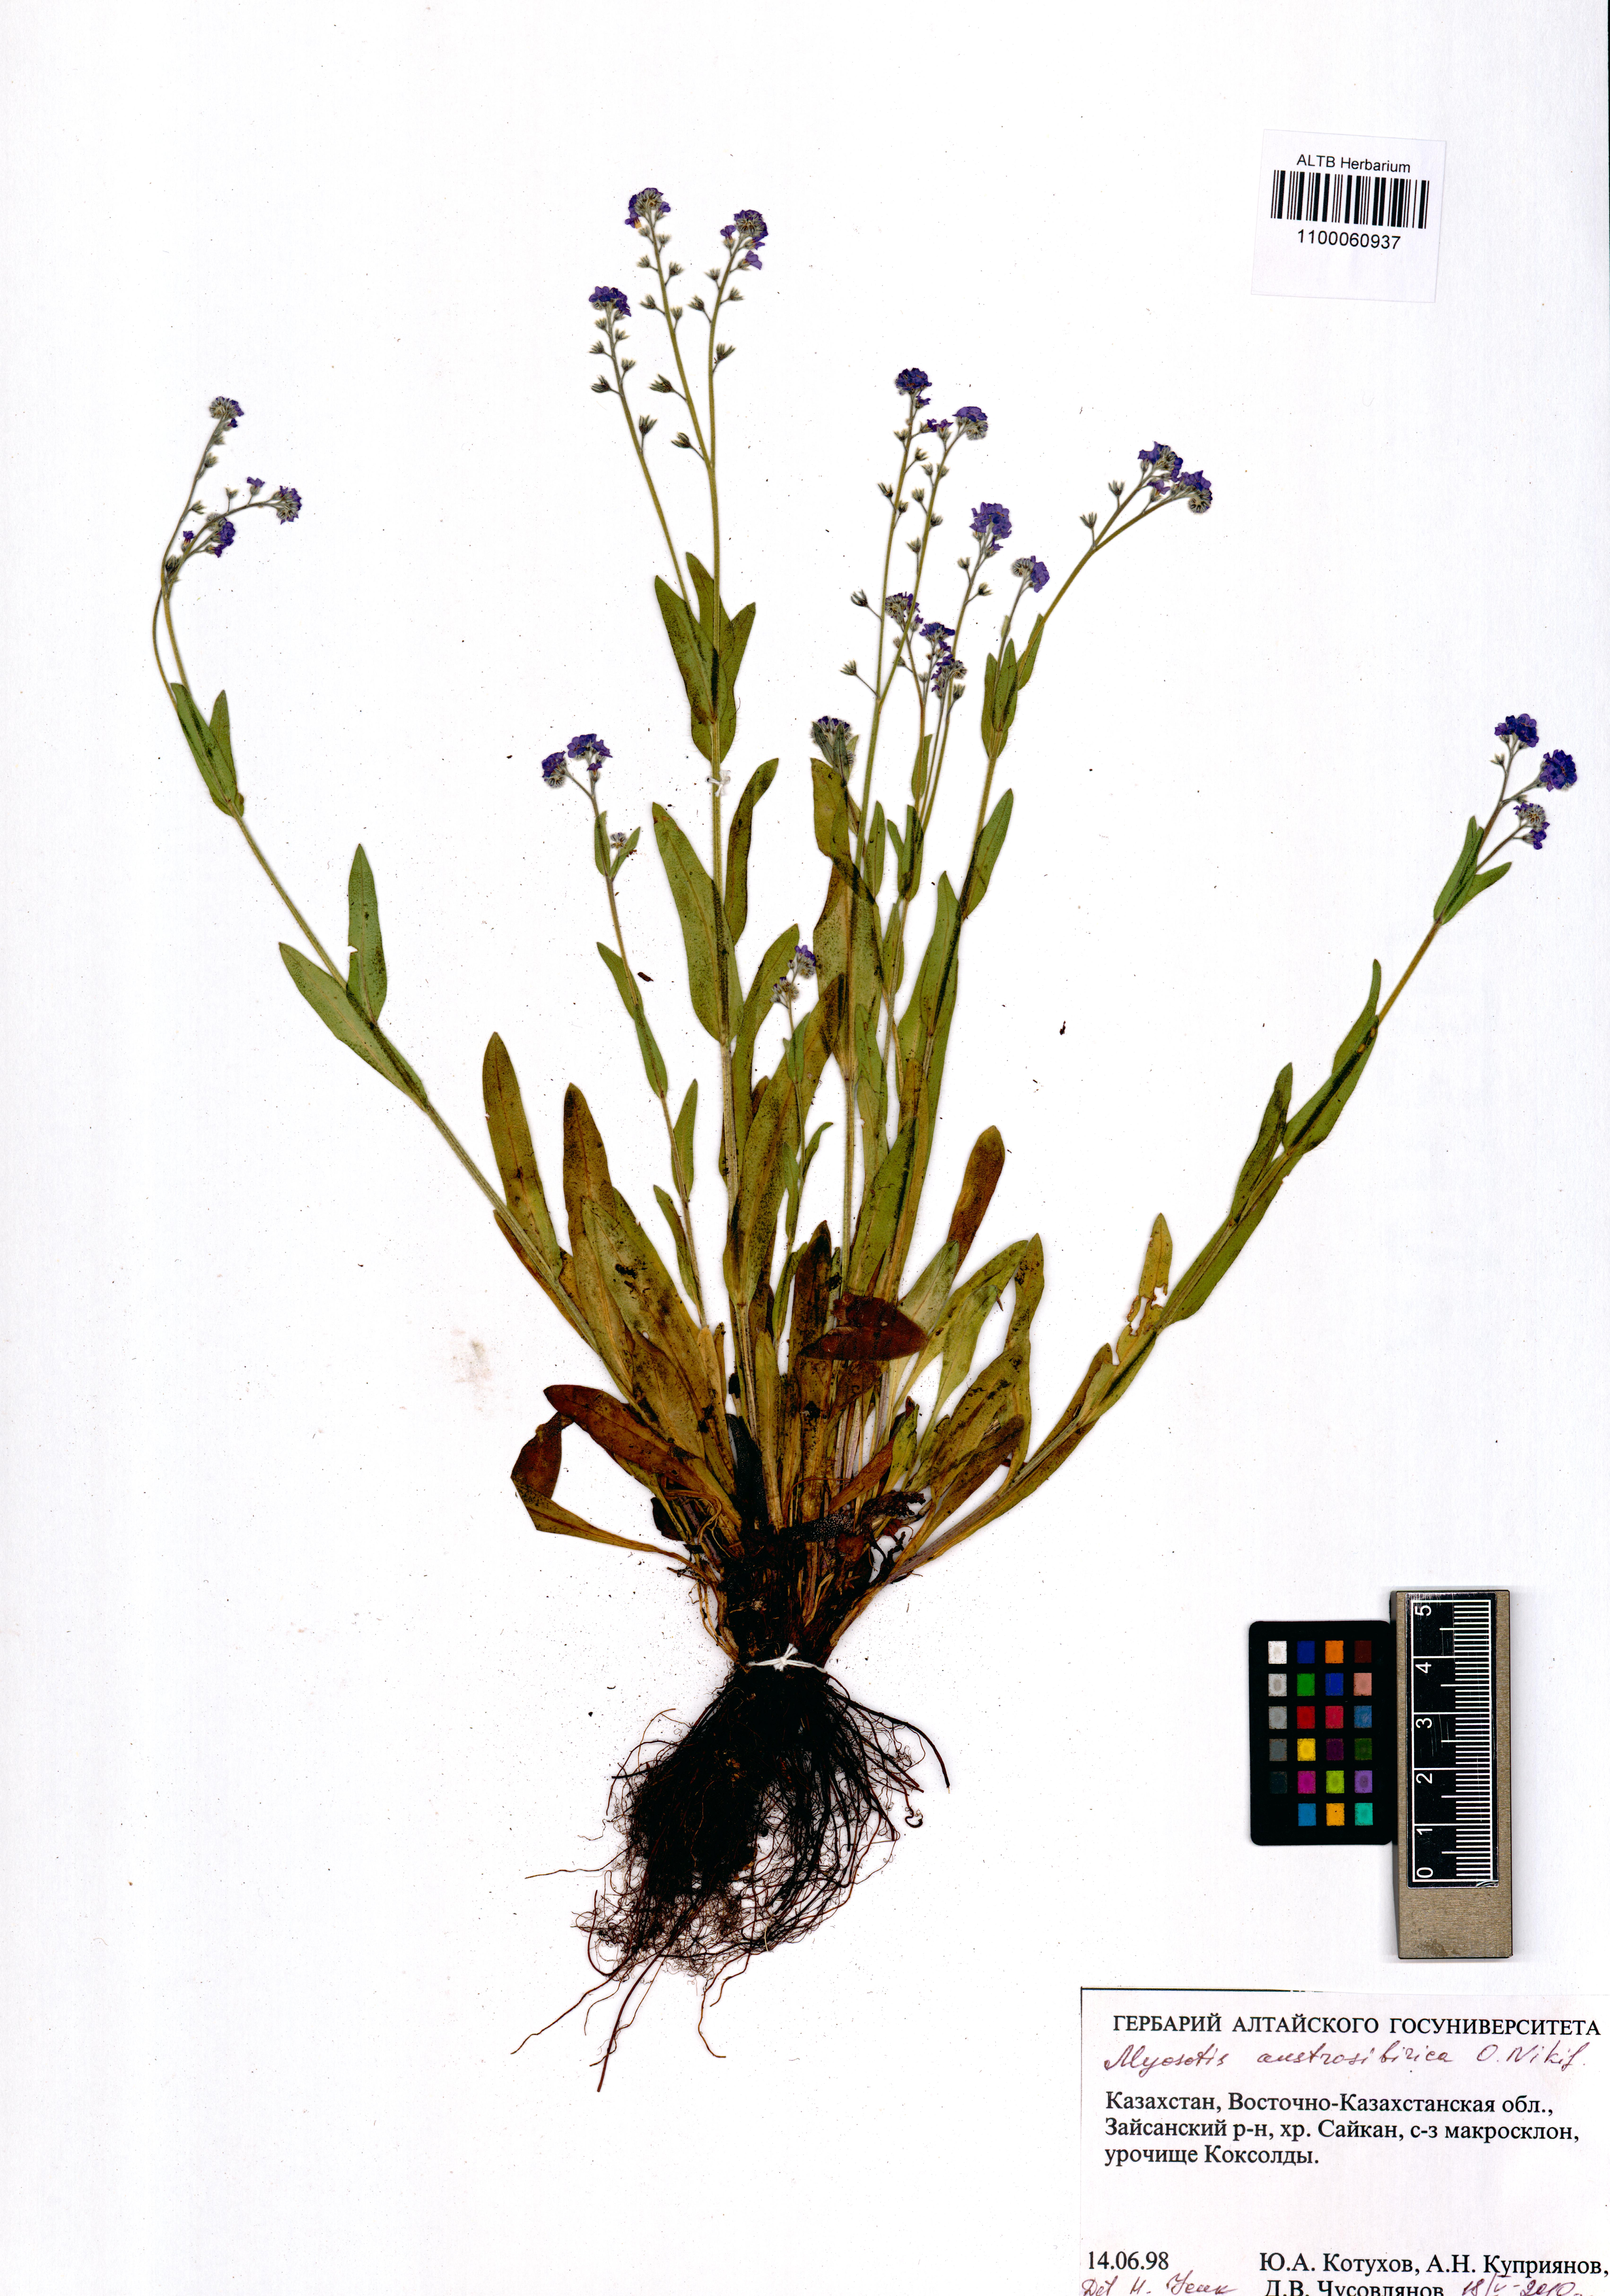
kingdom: Plantae
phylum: Tracheophyta
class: Magnoliopsida
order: Boraginales
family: Boraginaceae
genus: Myosotis
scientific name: Myosotis austrosibirica
